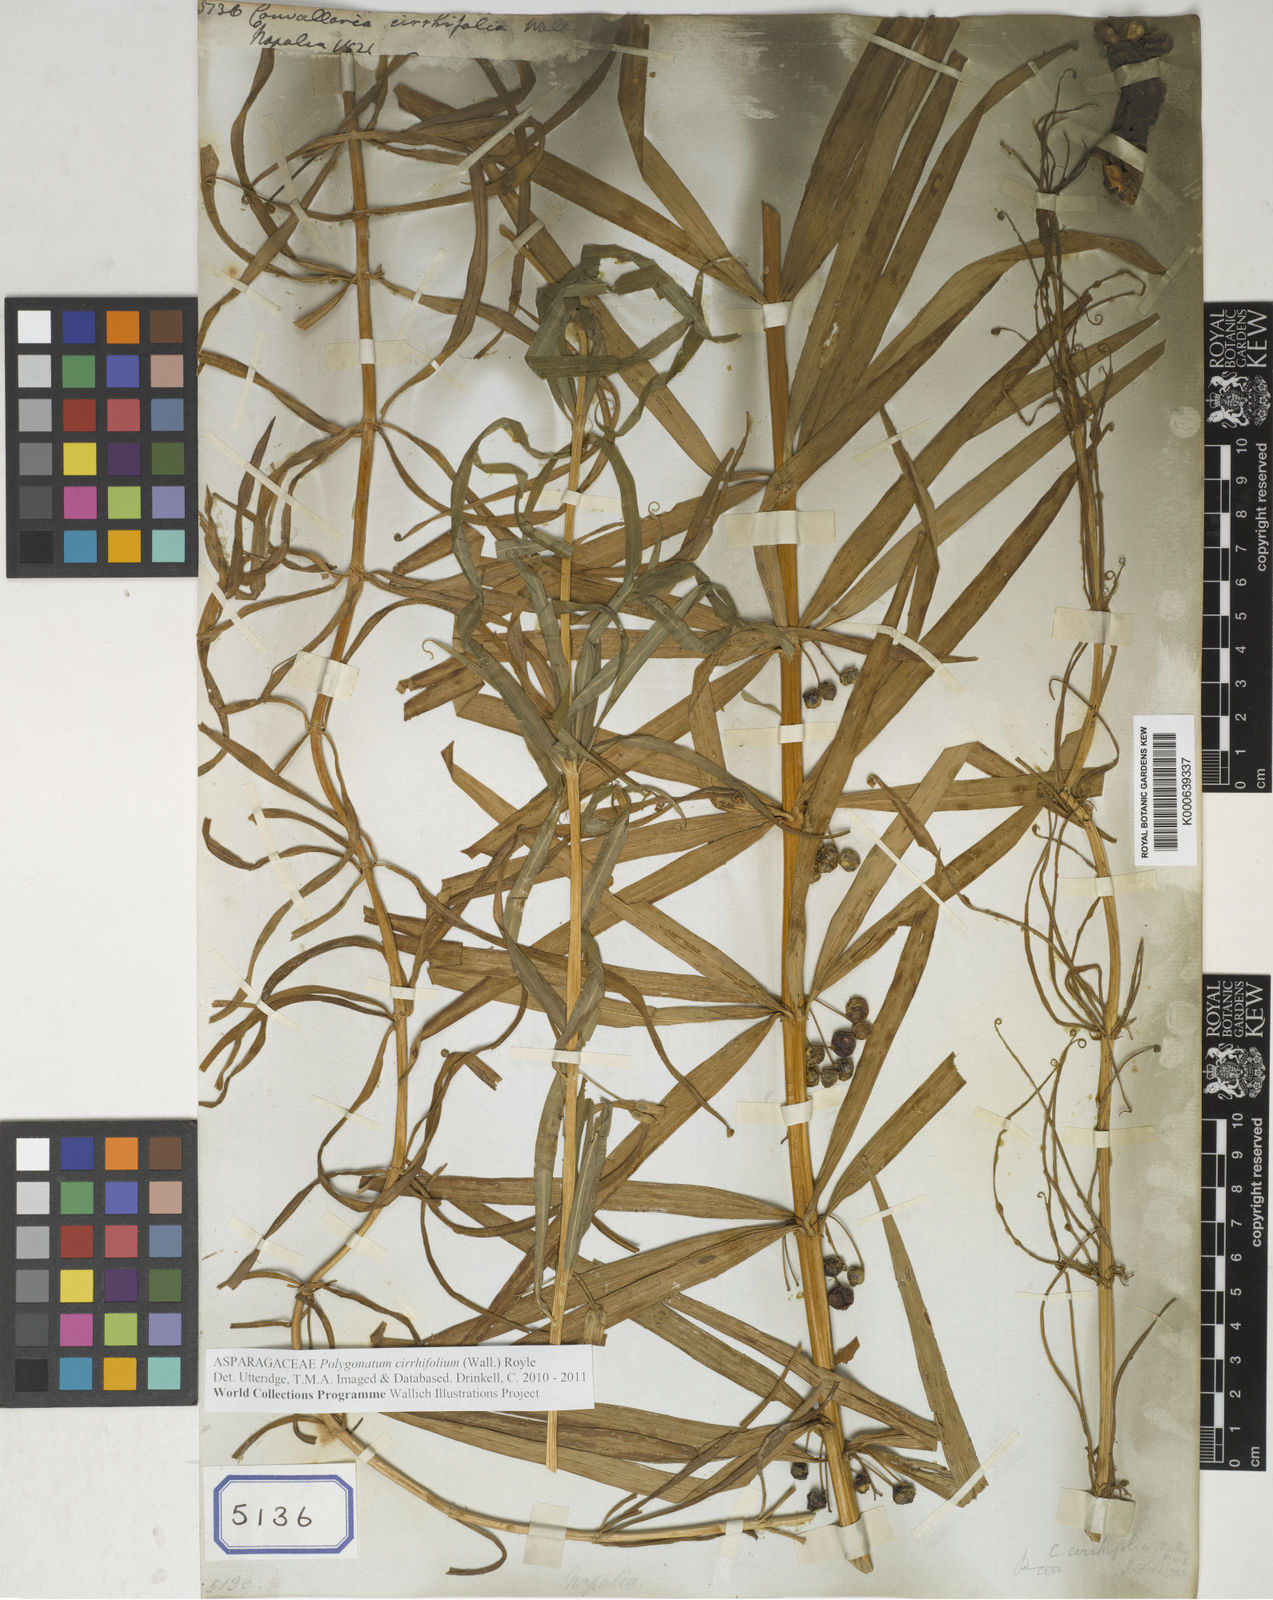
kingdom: Plantae
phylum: Tracheophyta
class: Liliopsida
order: Asparagales
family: Asparagaceae
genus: Polygonatum
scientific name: Polygonatum cirrhifolium
